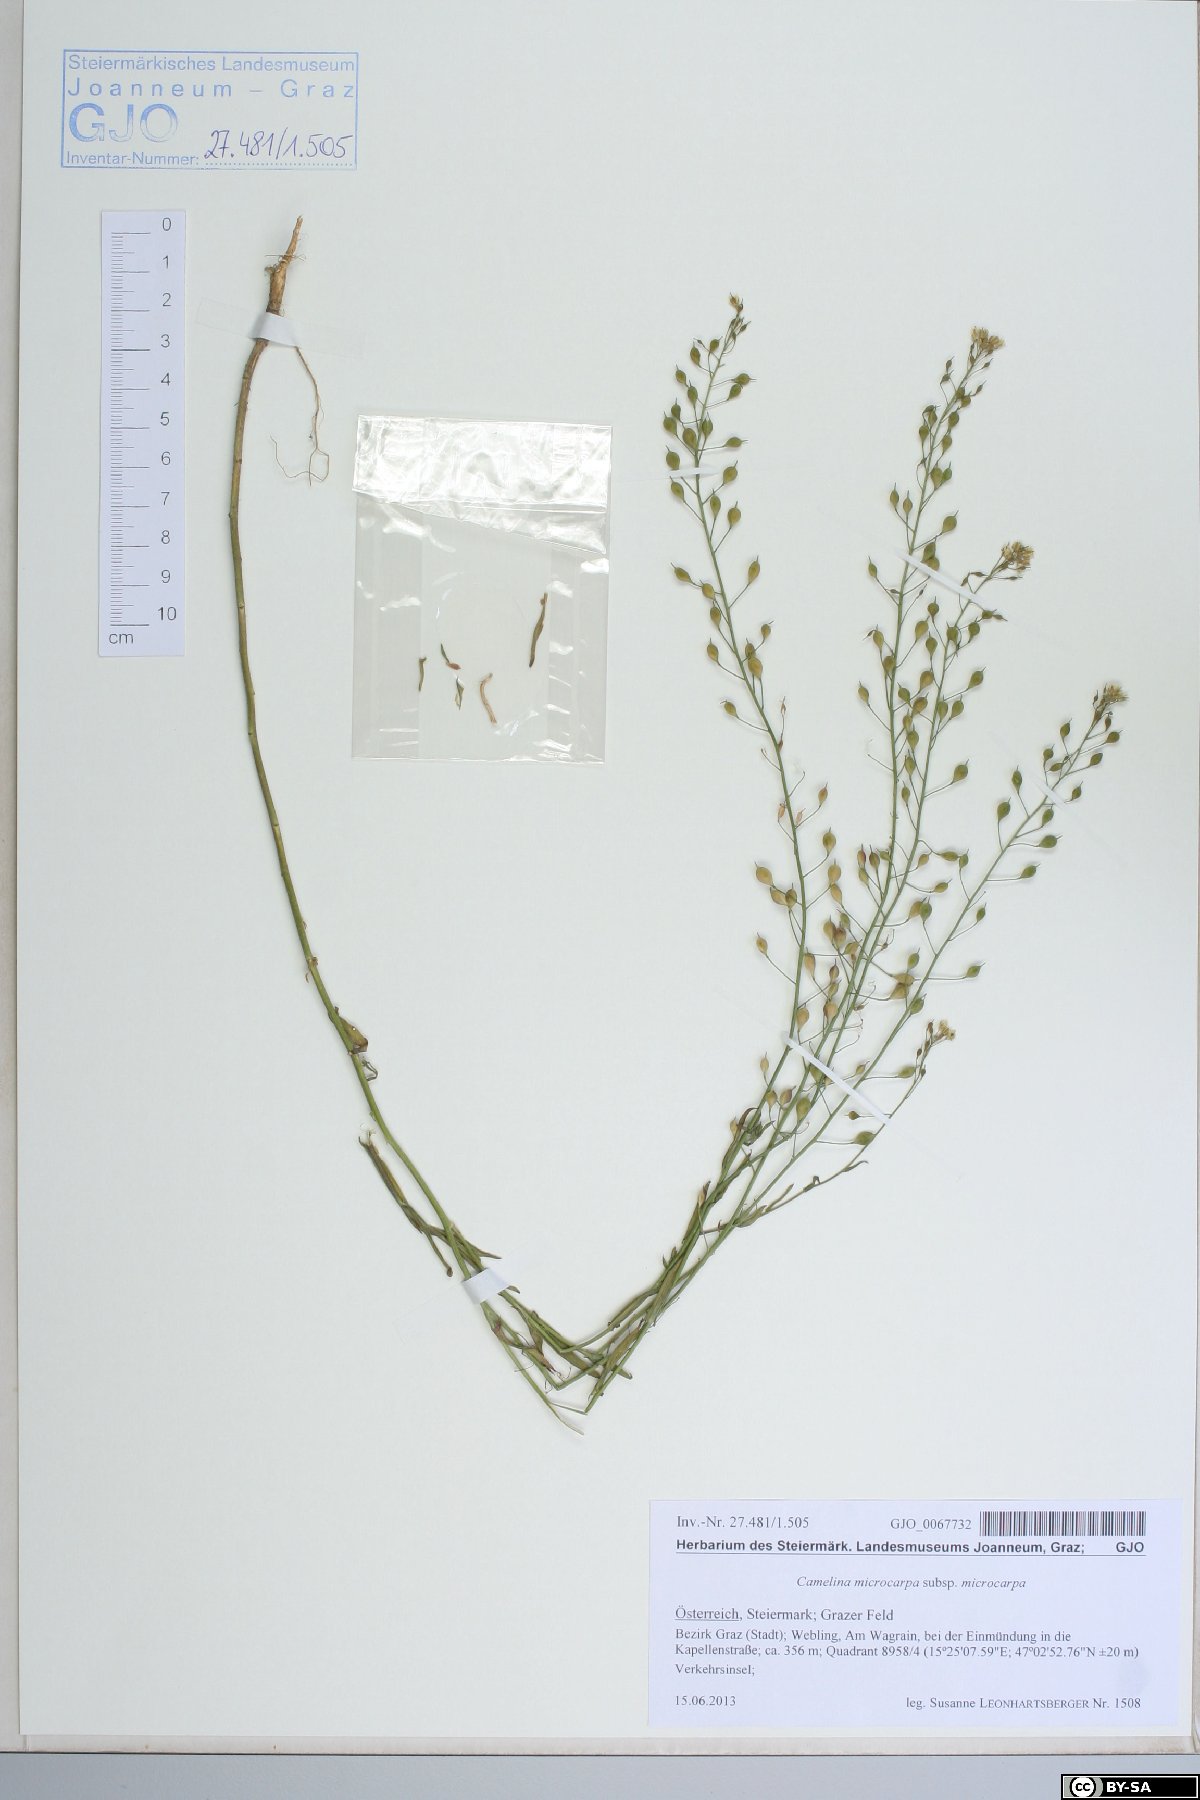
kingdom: Plantae
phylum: Tracheophyta
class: Magnoliopsida
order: Brassicales
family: Brassicaceae
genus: Camelina
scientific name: Camelina microcarpa
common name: Lesser gold-of-pleasure
